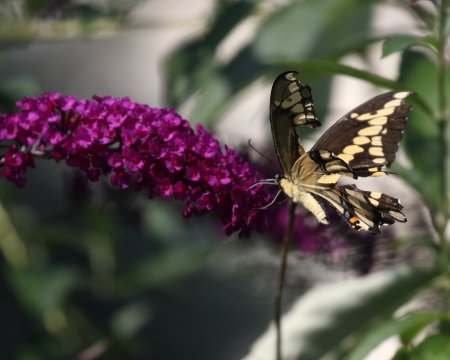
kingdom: Animalia
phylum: Arthropoda
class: Insecta
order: Lepidoptera
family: Papilionidae
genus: Papilio
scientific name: Papilio cresphontes
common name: Eastern Giant Swallowtail
